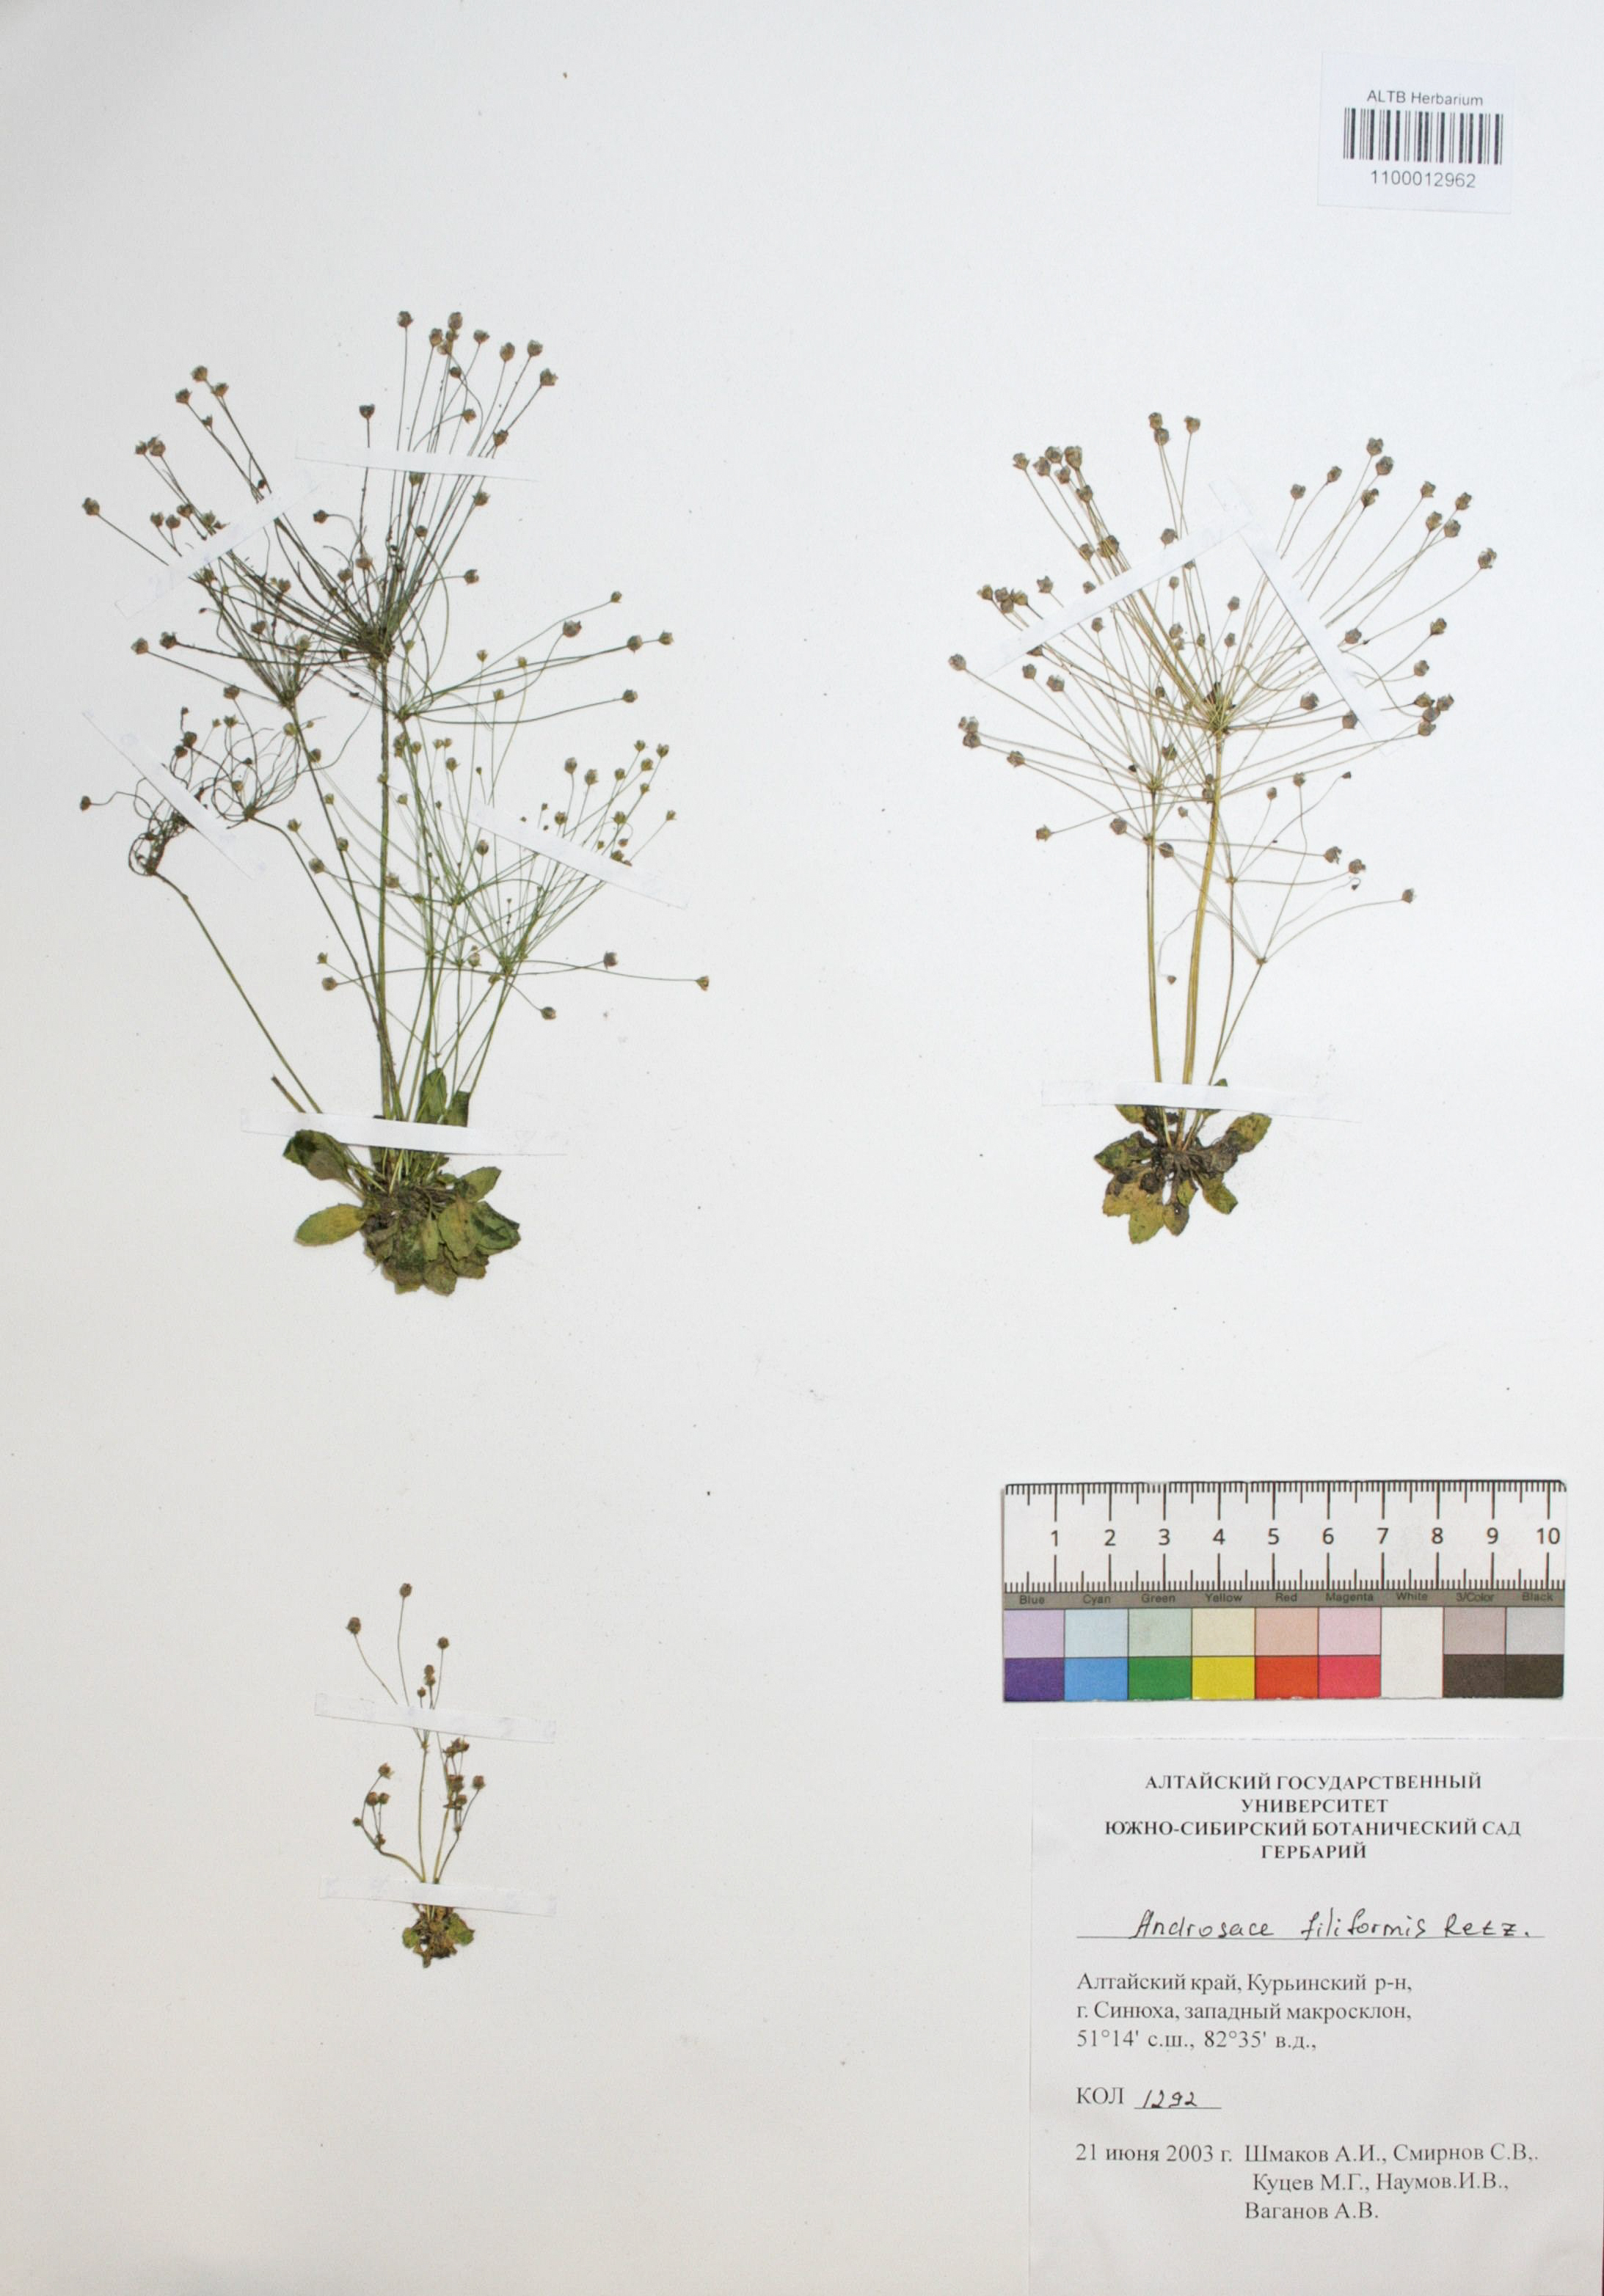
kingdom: Plantae
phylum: Tracheophyta
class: Magnoliopsida
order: Ericales
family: Primulaceae
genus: Androsace
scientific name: Androsace filiformis
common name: Filiform rock jasmine
